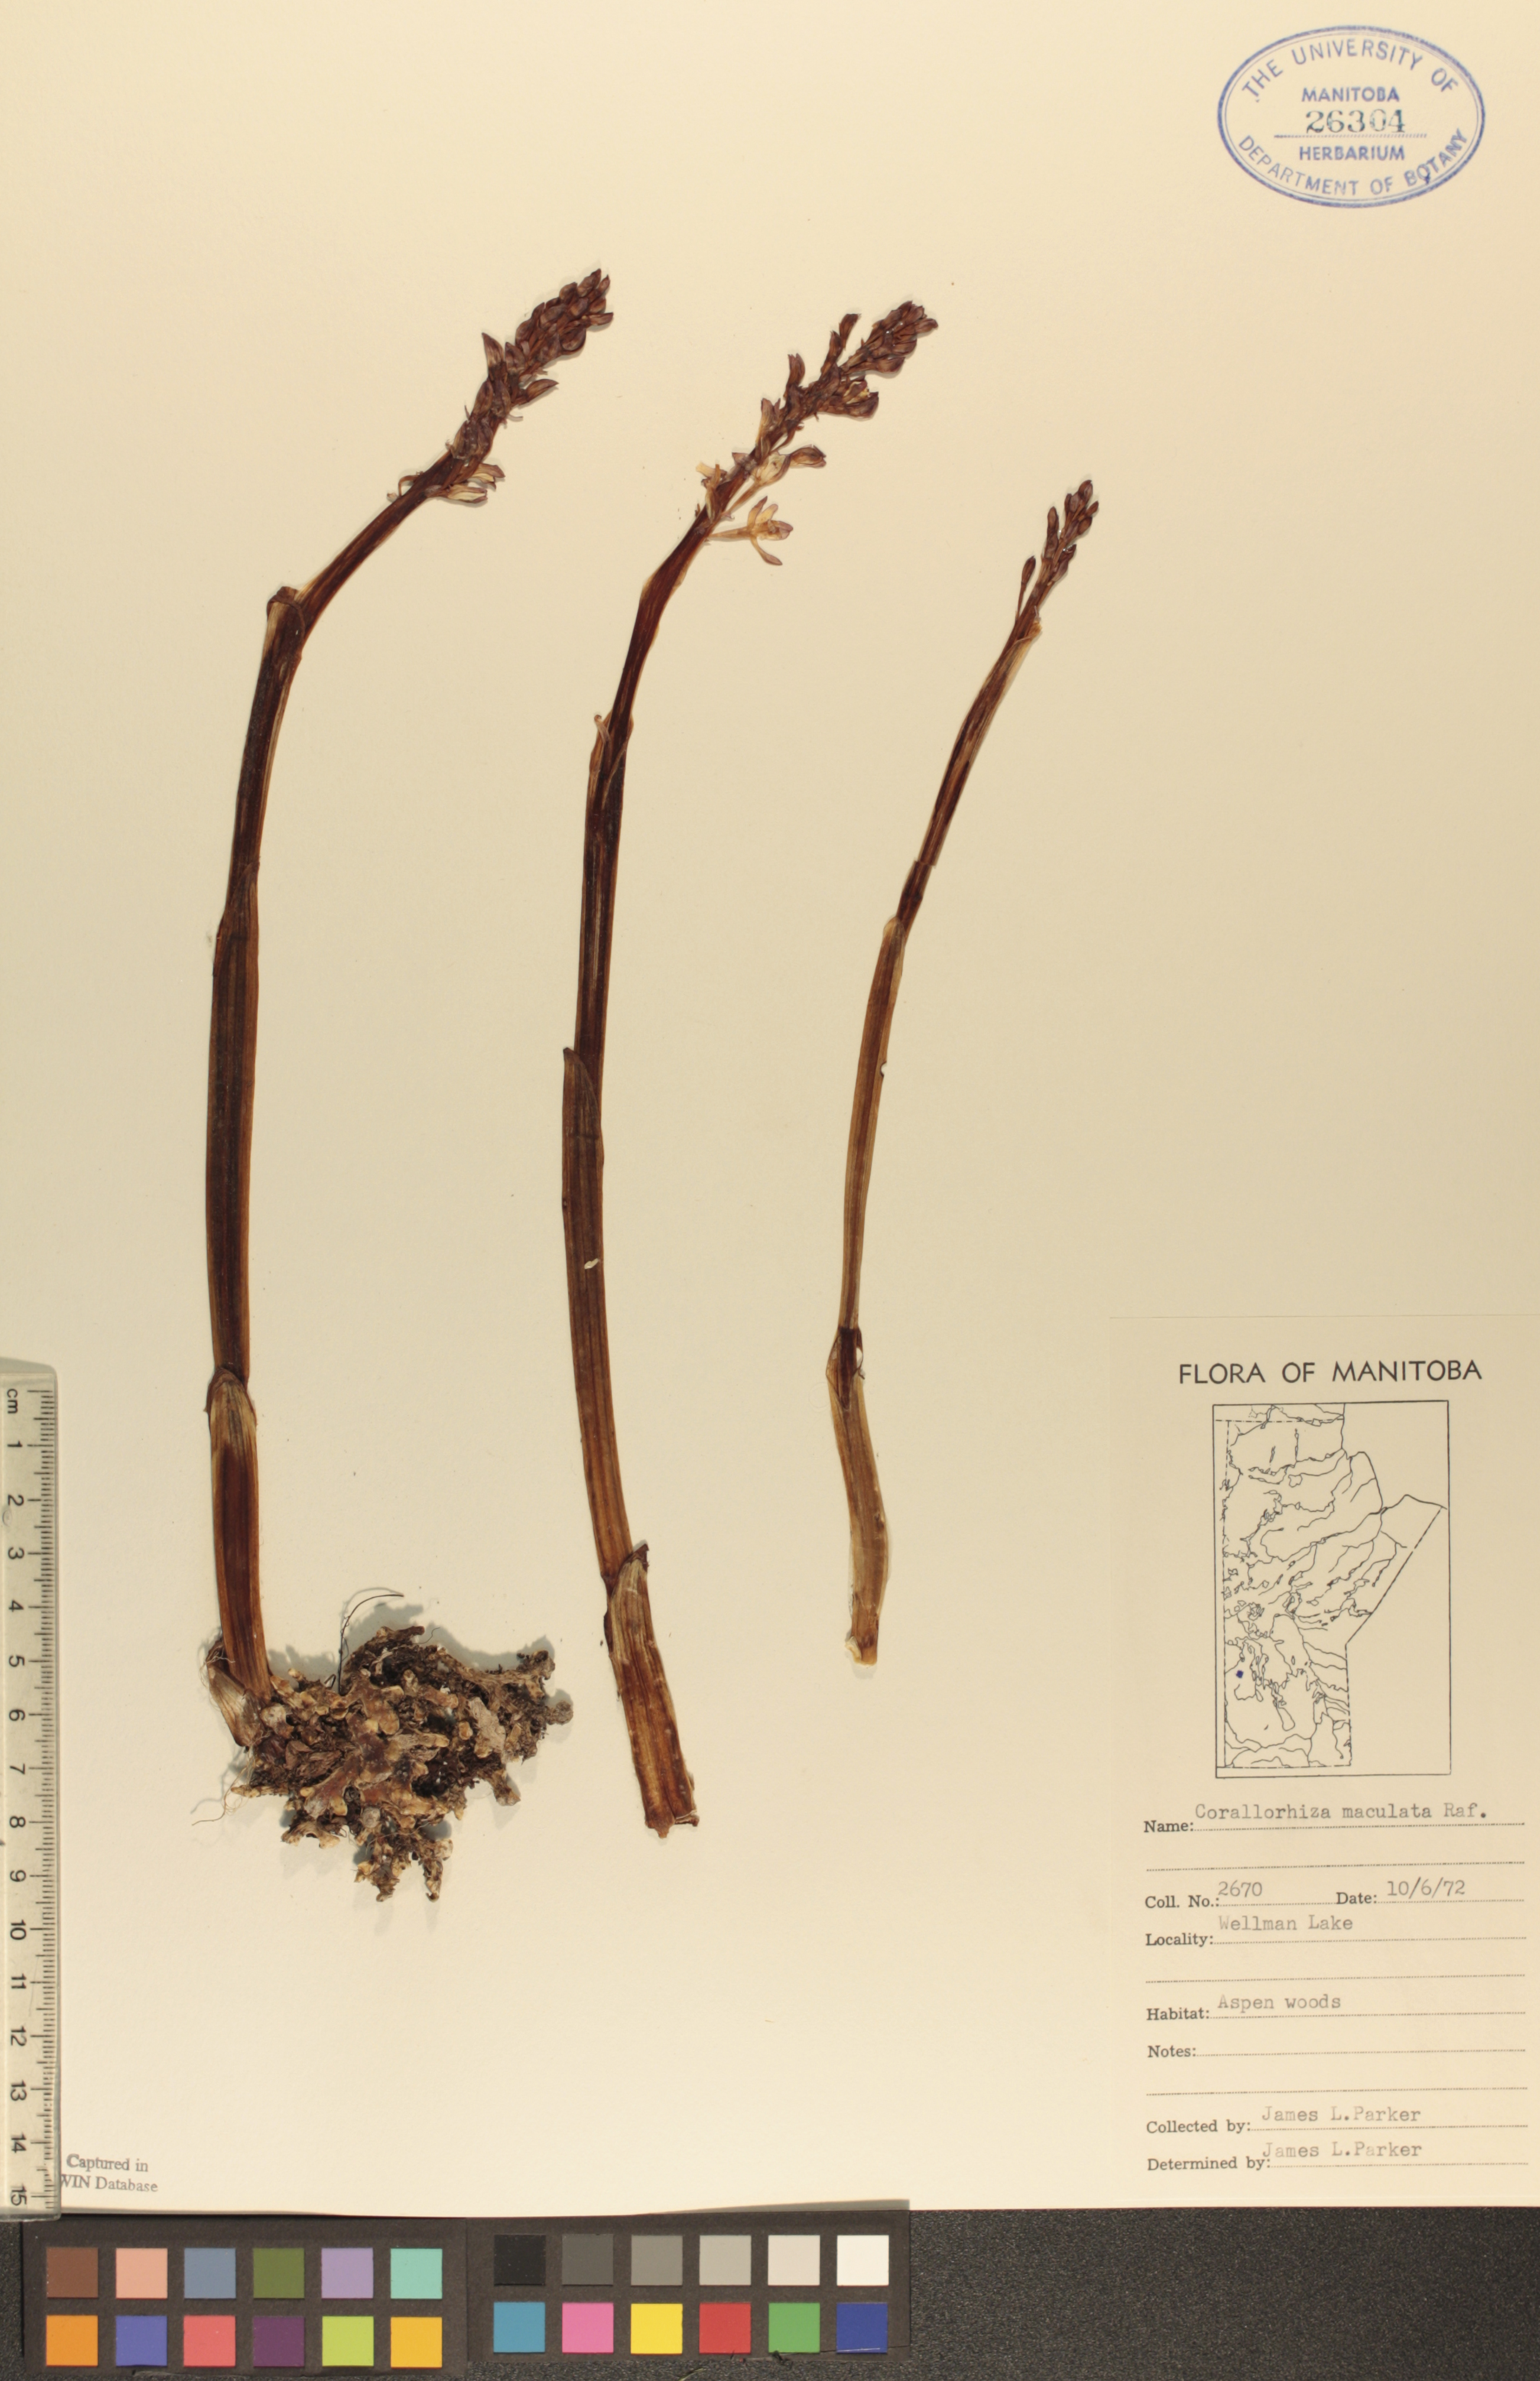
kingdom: Plantae
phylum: Tracheophyta
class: Liliopsida
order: Asparagales
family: Orchidaceae
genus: Corallorhiza
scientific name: Corallorhiza maculata
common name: Spotted coralroot
